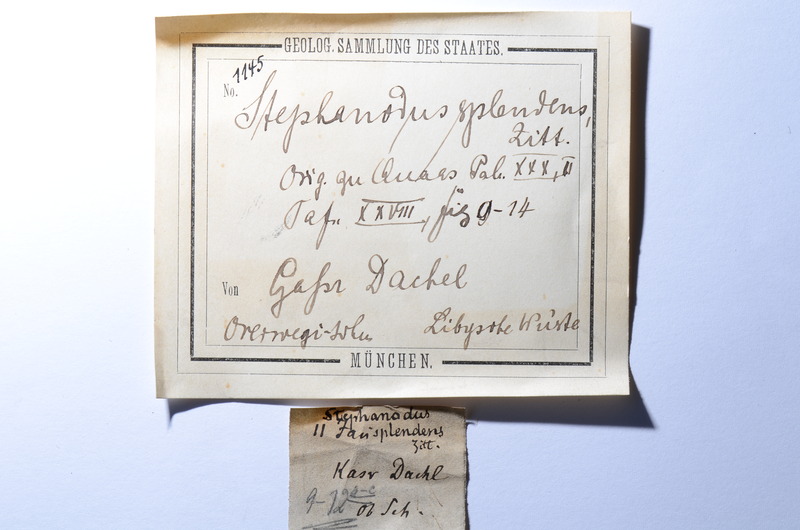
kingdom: Animalia
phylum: Chordata
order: Tetraodontiformes
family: Trigonodontidae
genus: Stephanodus
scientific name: Stephanodus
